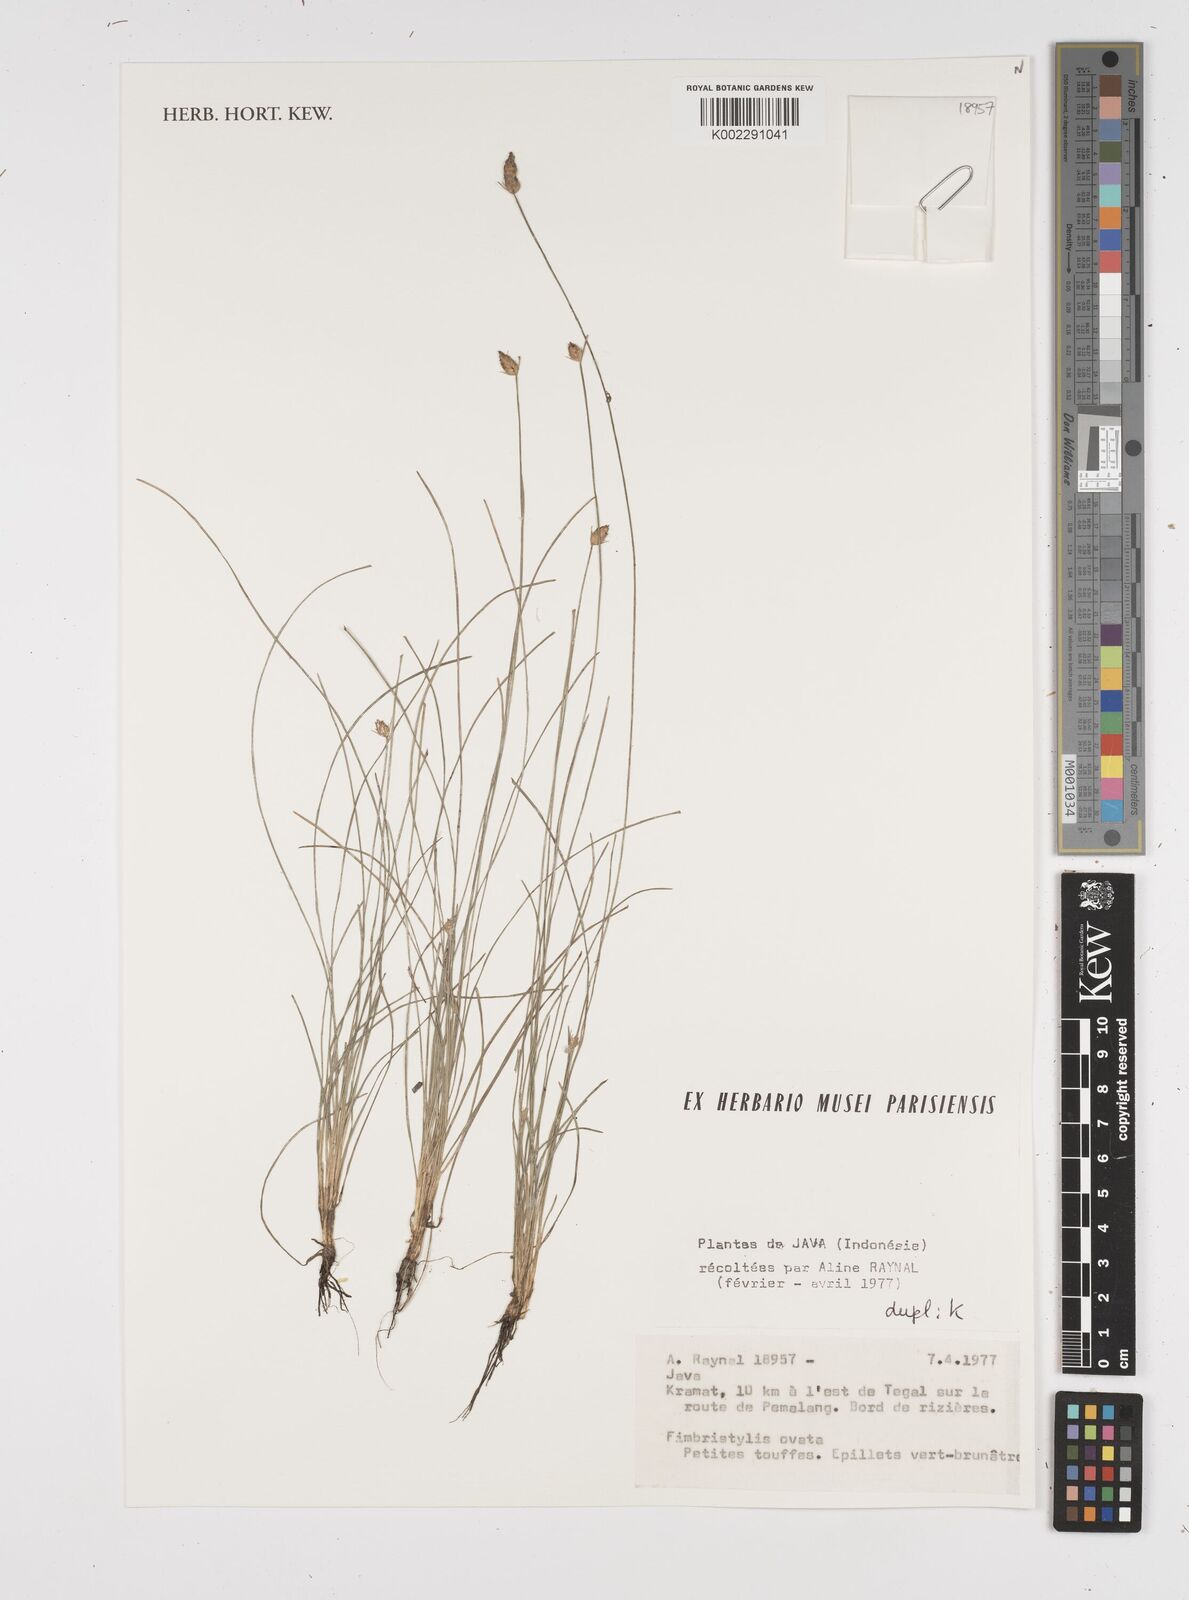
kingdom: Plantae
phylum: Tracheophyta
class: Liliopsida
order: Poales
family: Cyperaceae
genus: Abildgaardia
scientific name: Abildgaardia ovata
